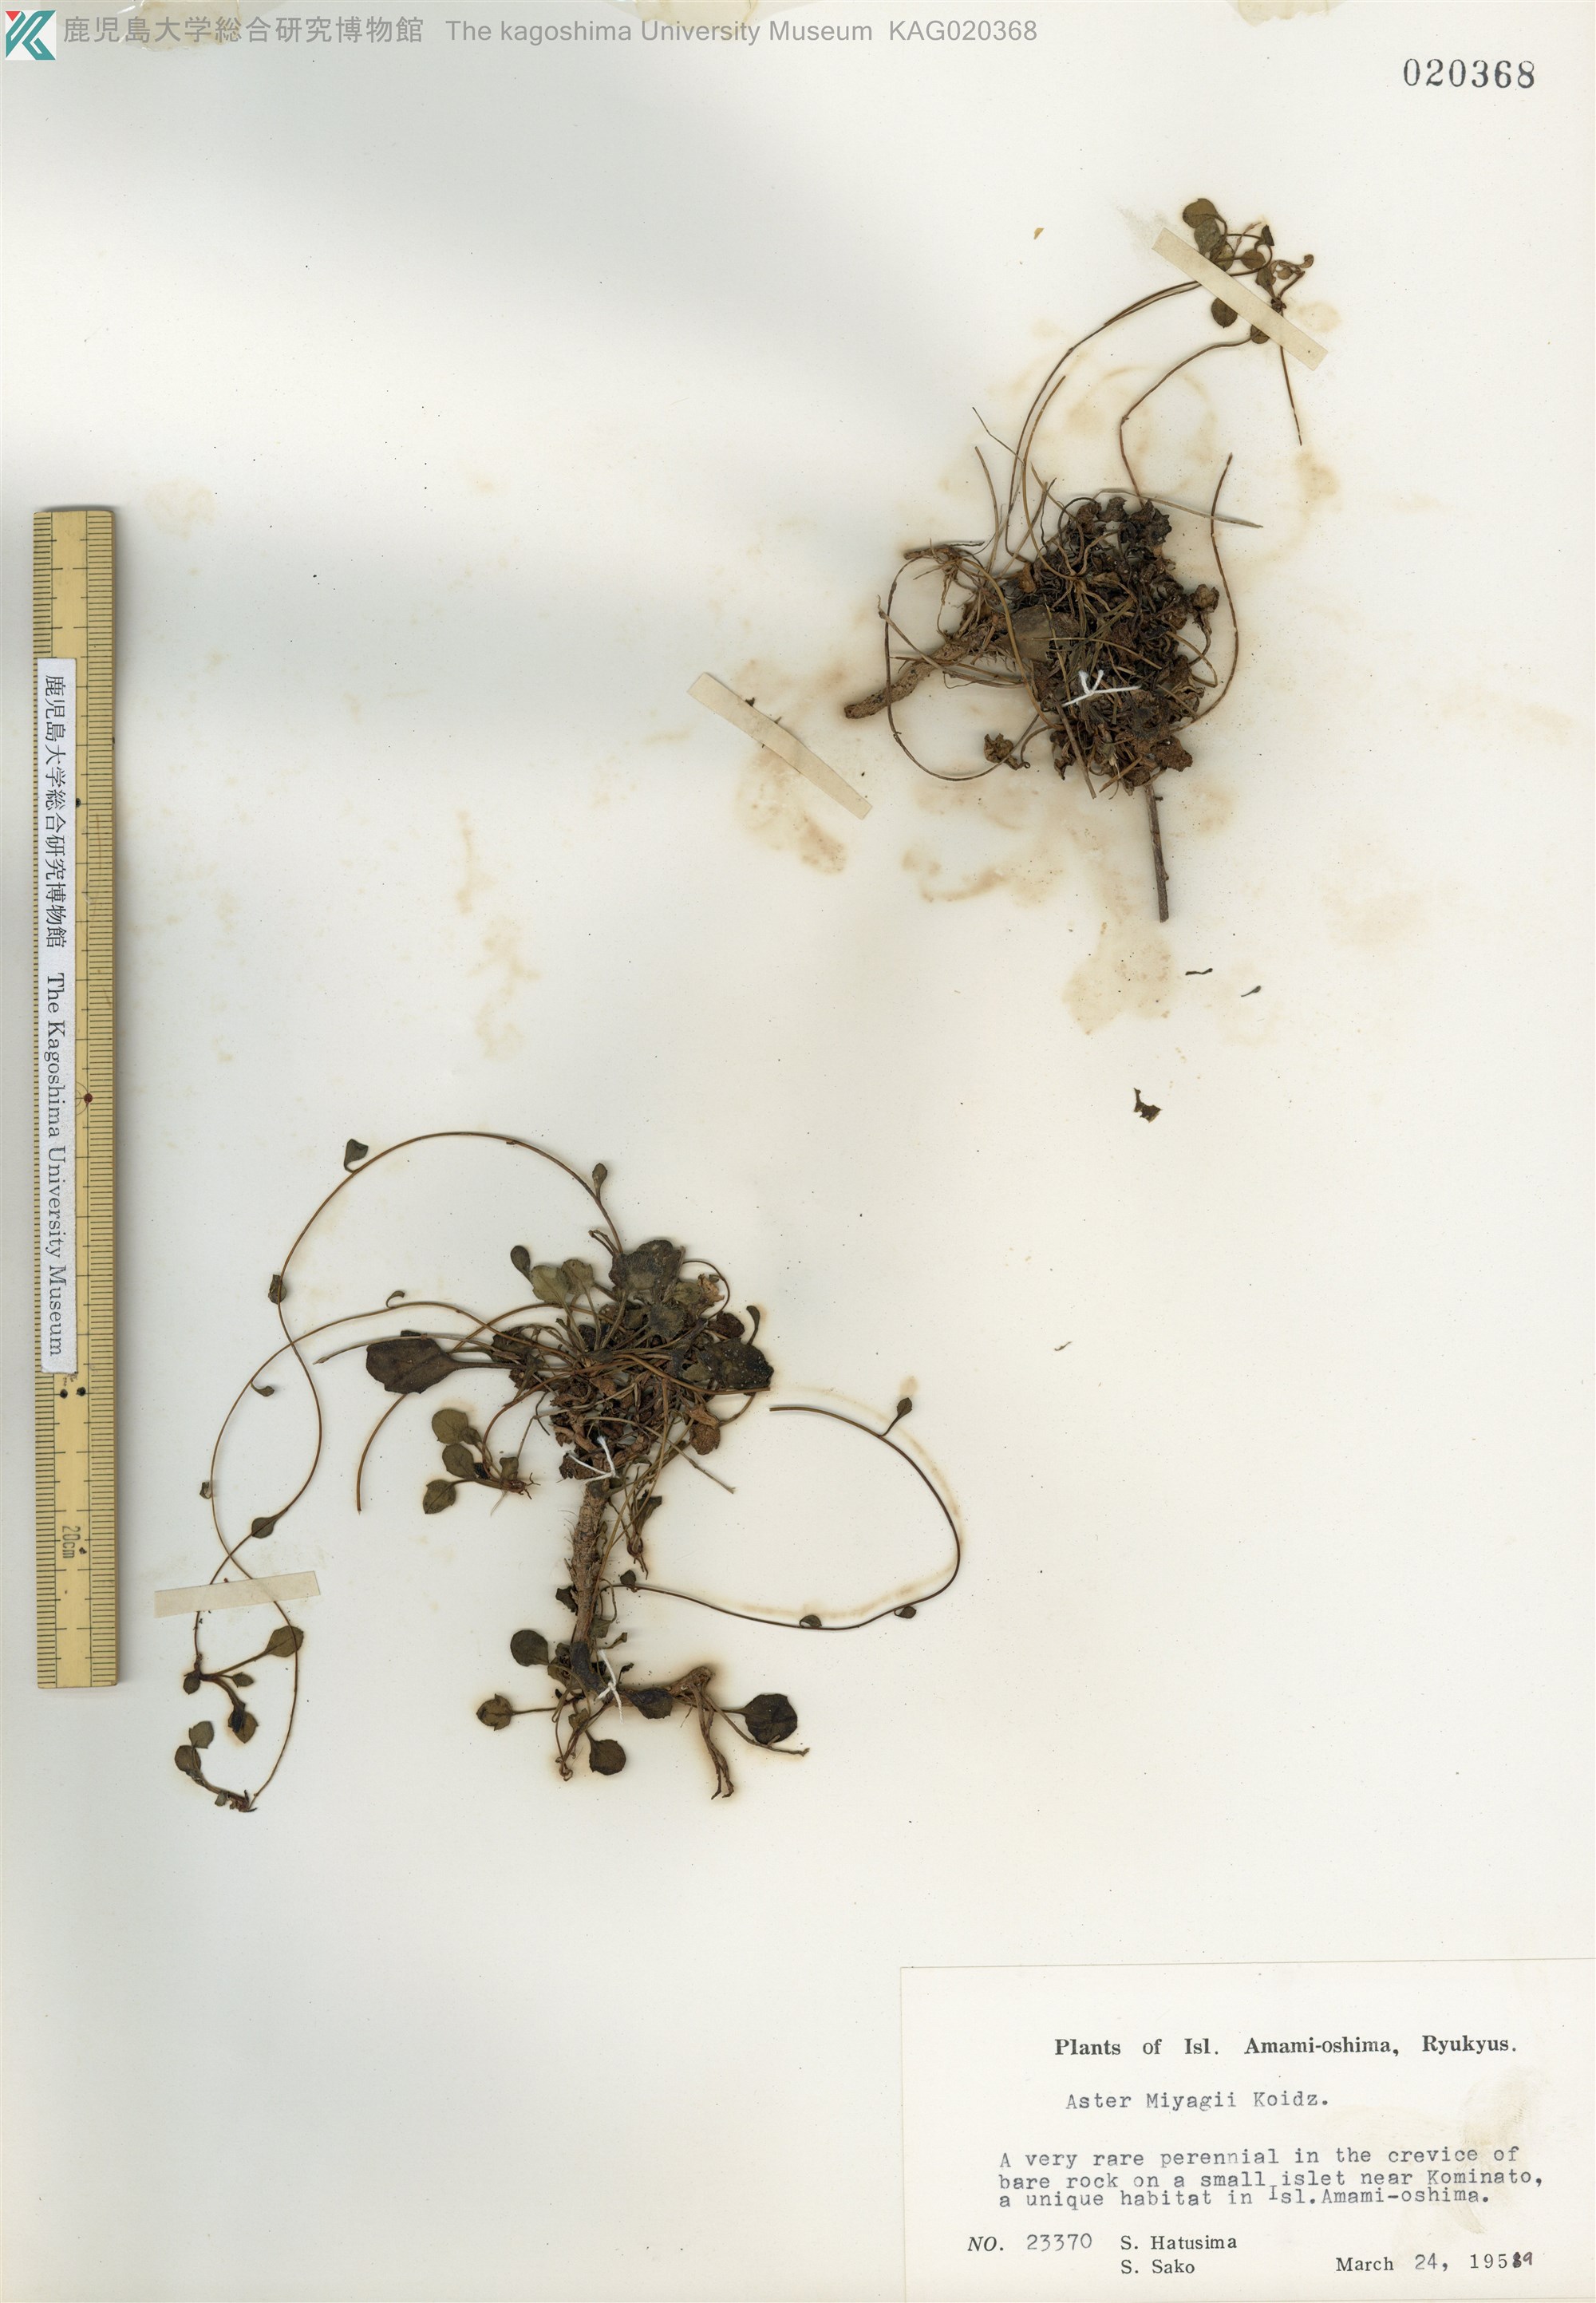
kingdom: Plantae
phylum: Tracheophyta
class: Magnoliopsida
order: Asterales
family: Asteraceae
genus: Aster
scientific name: Aster miyagii
